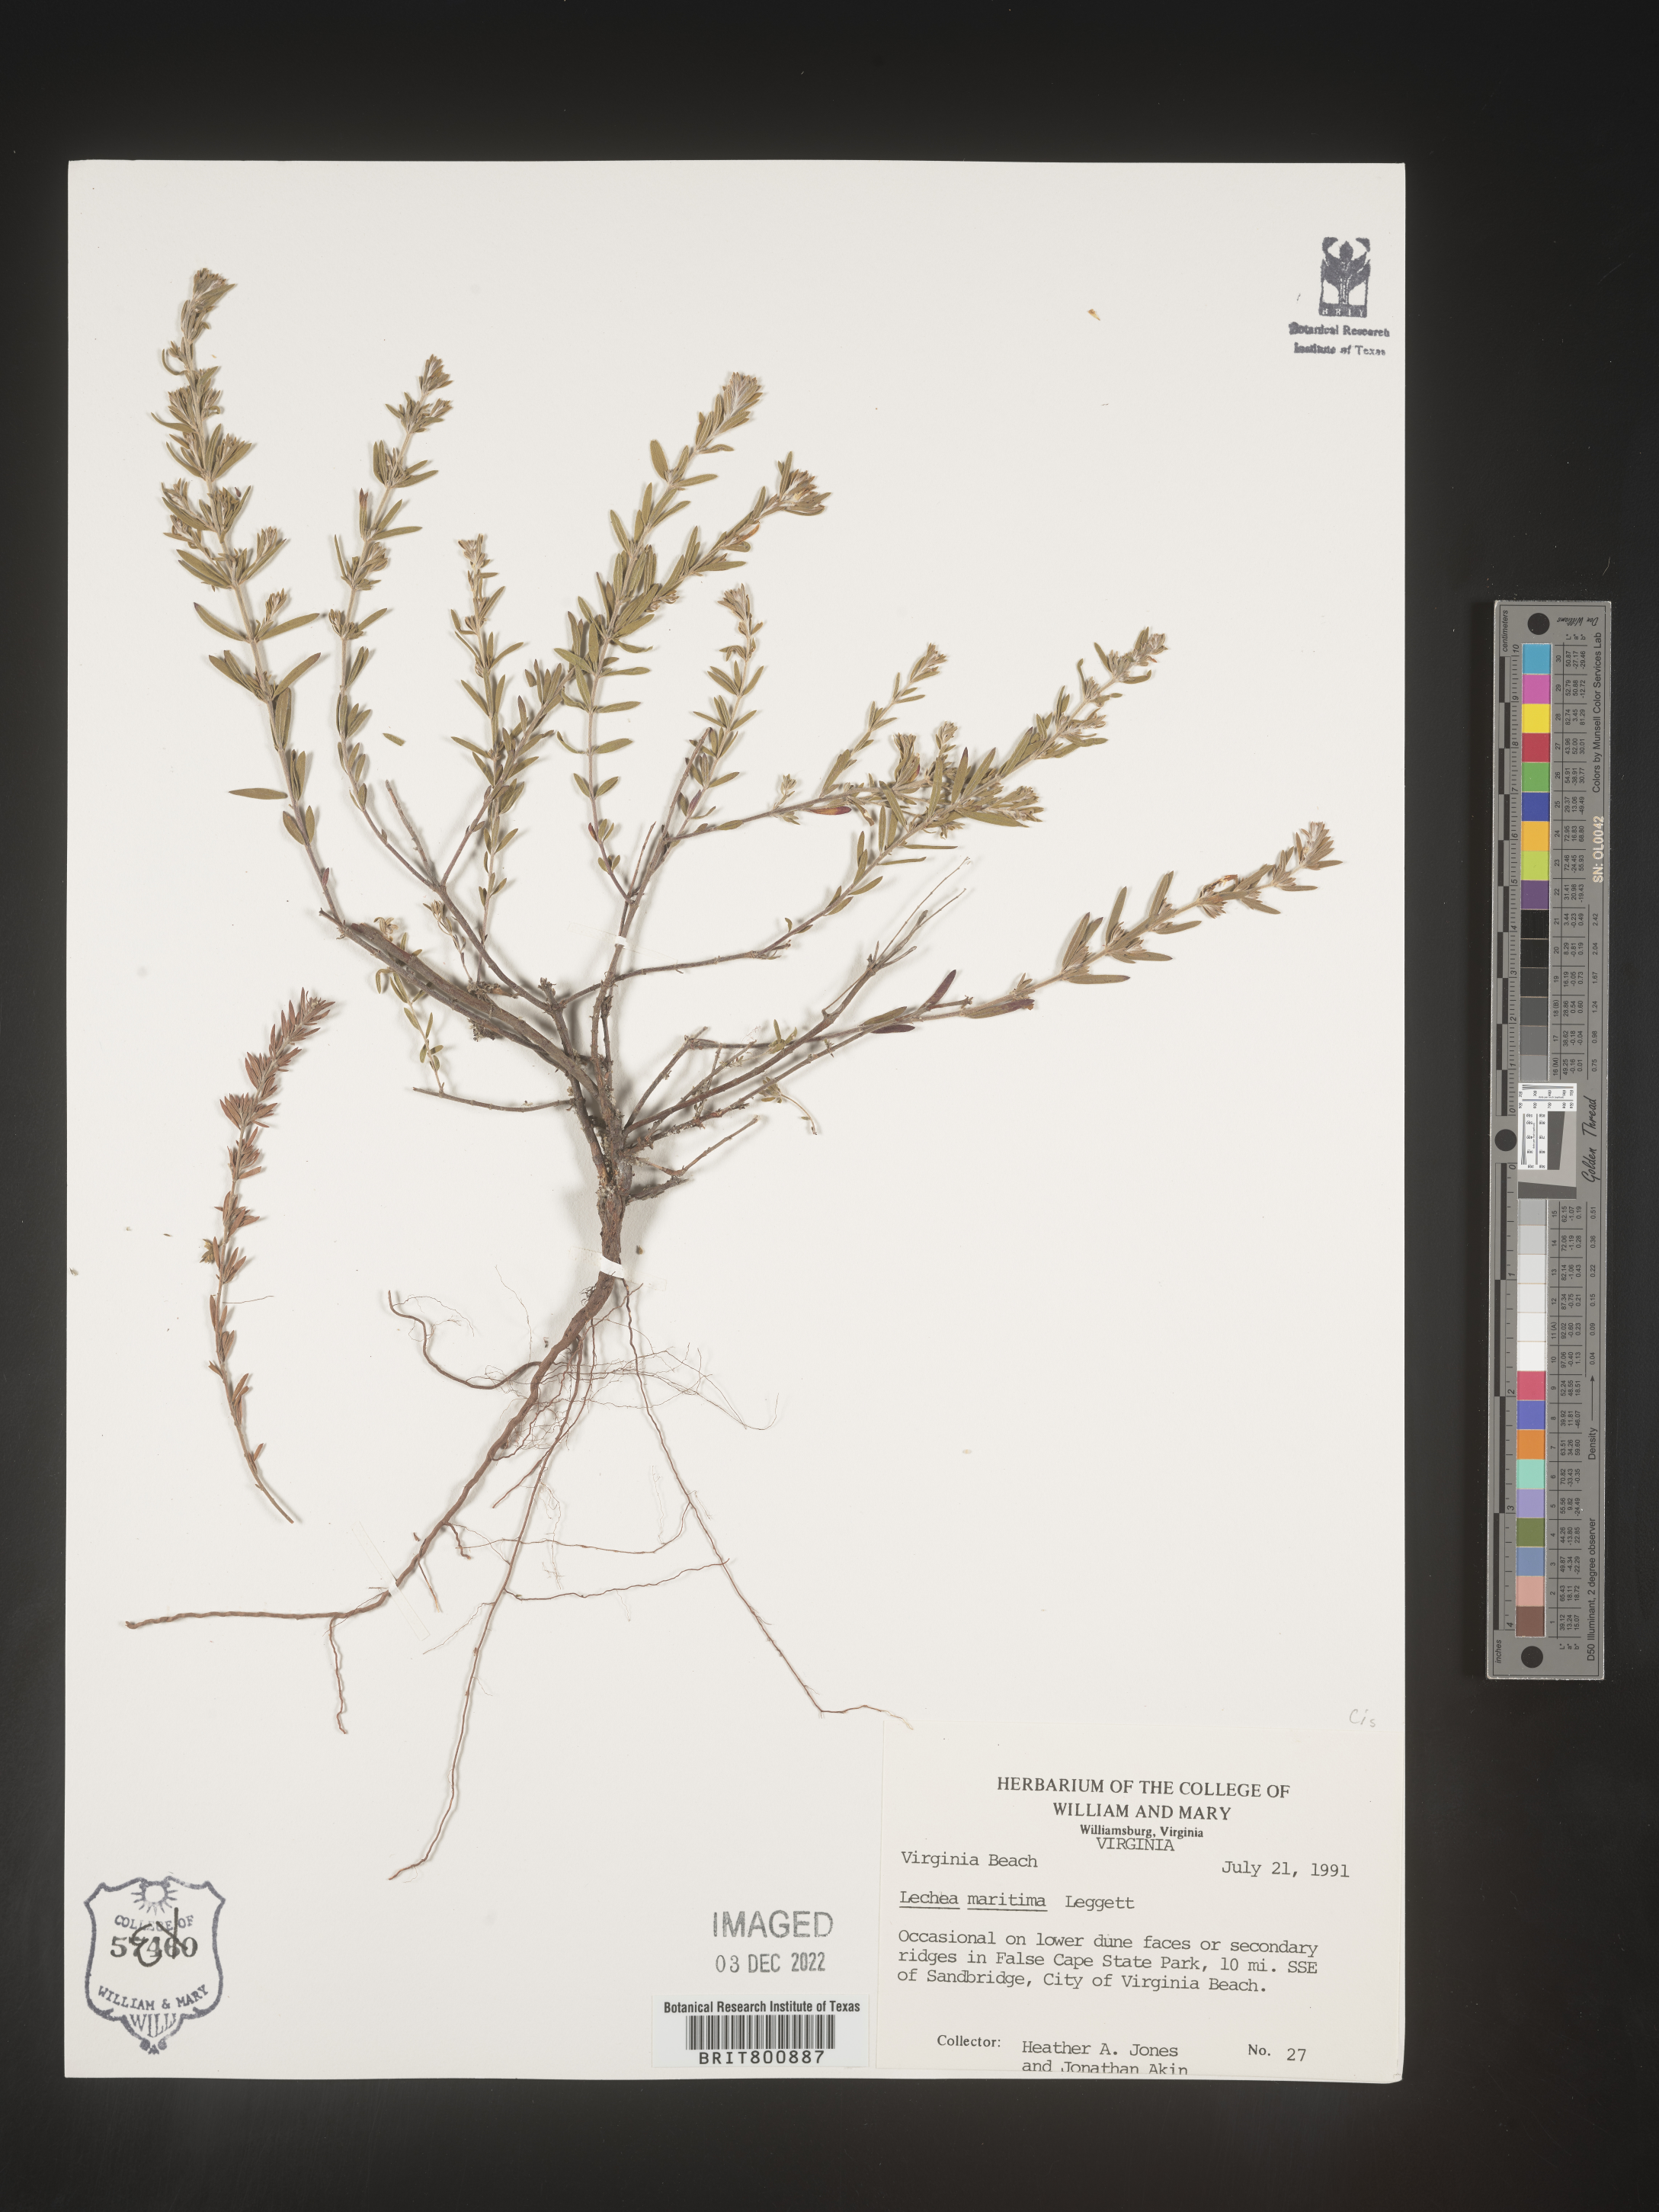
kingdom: Plantae
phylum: Tracheophyta
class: Magnoliopsida
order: Malvales
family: Cistaceae
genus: Lechea
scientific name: Lechea maritima
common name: Beach pinweed
